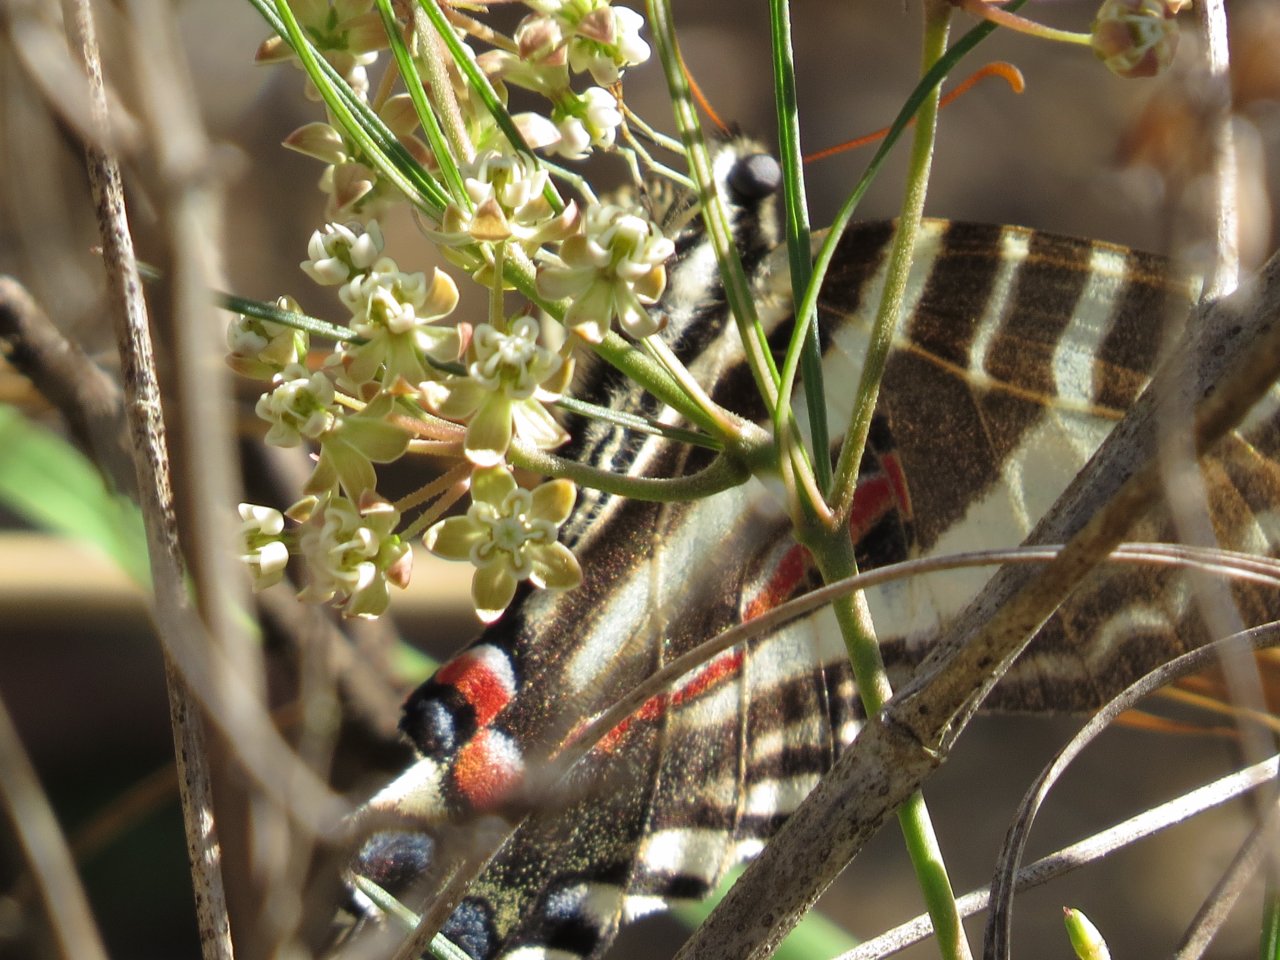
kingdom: Animalia
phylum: Arthropoda
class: Insecta
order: Lepidoptera
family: Papilionidae
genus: Protographium
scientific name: Protographium marcellus
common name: Zebra Swallowtail
